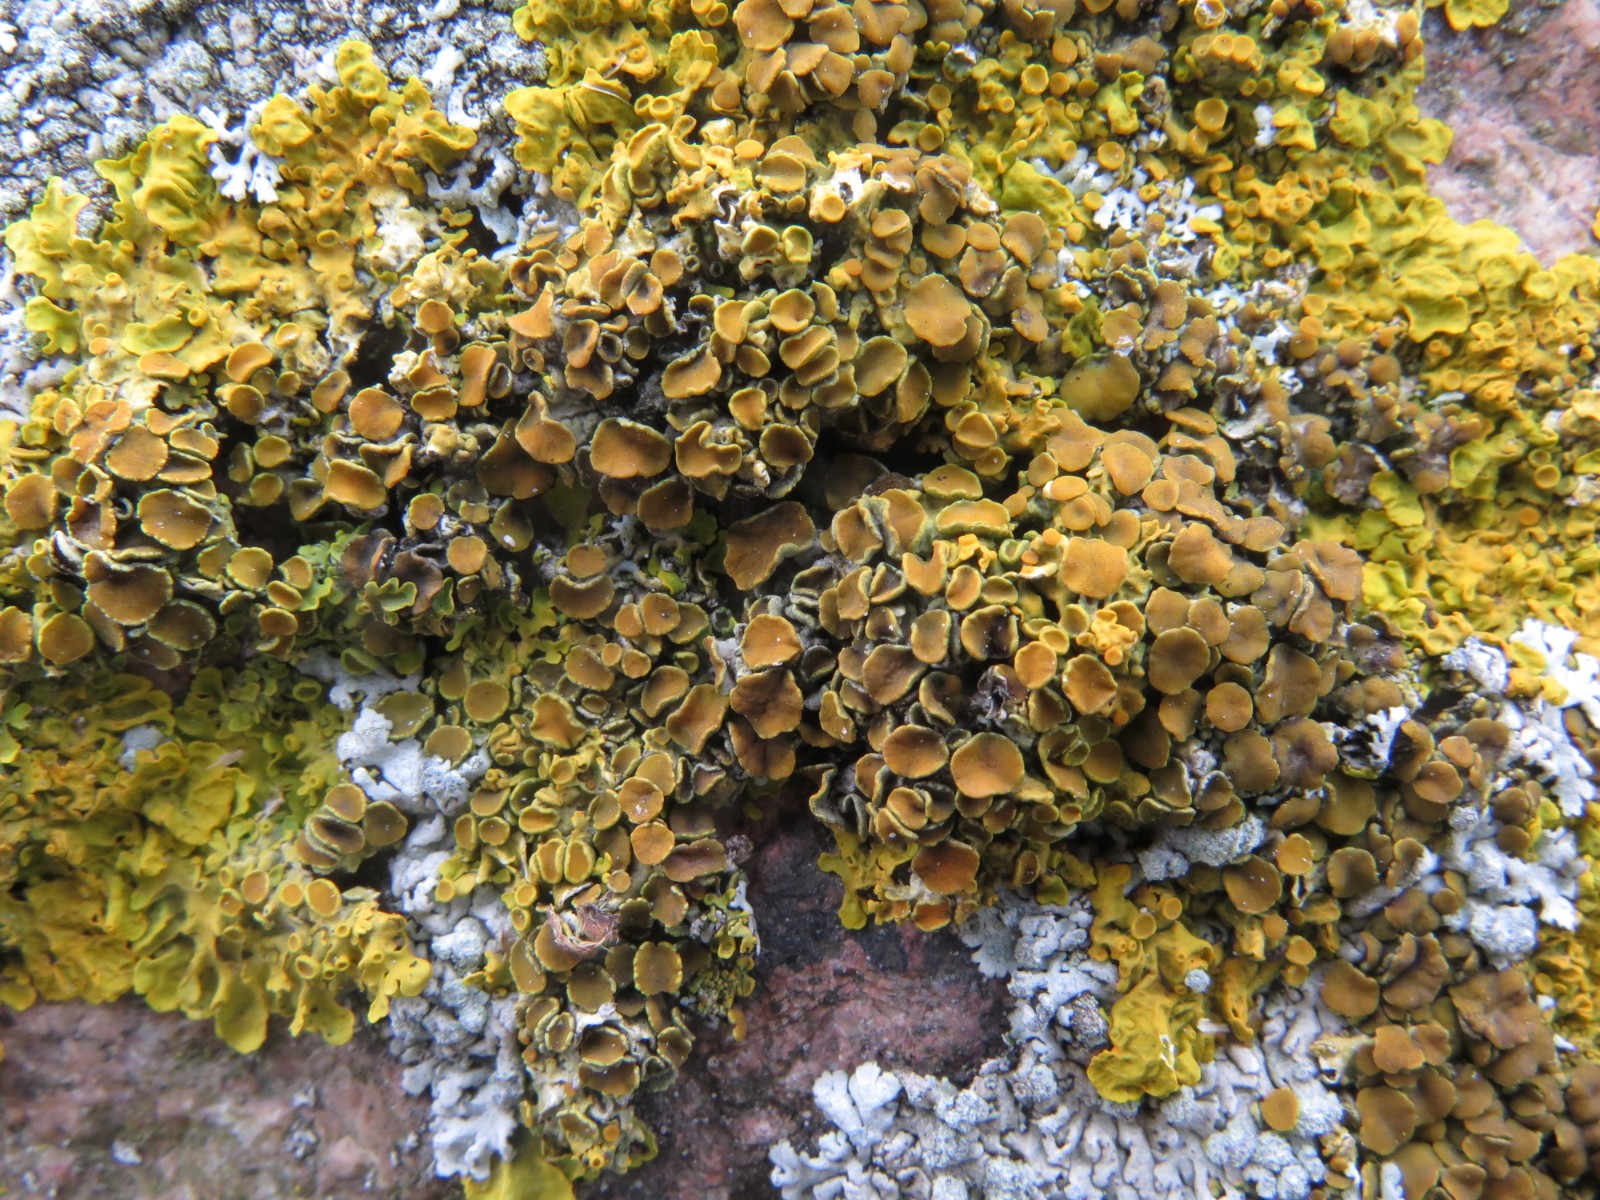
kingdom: Fungi
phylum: Ascomycota
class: Lecanoromycetes
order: Teloschistales
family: Teloschistaceae
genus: Xanthoria
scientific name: Xanthoria parietina
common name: almindelig væggelav
